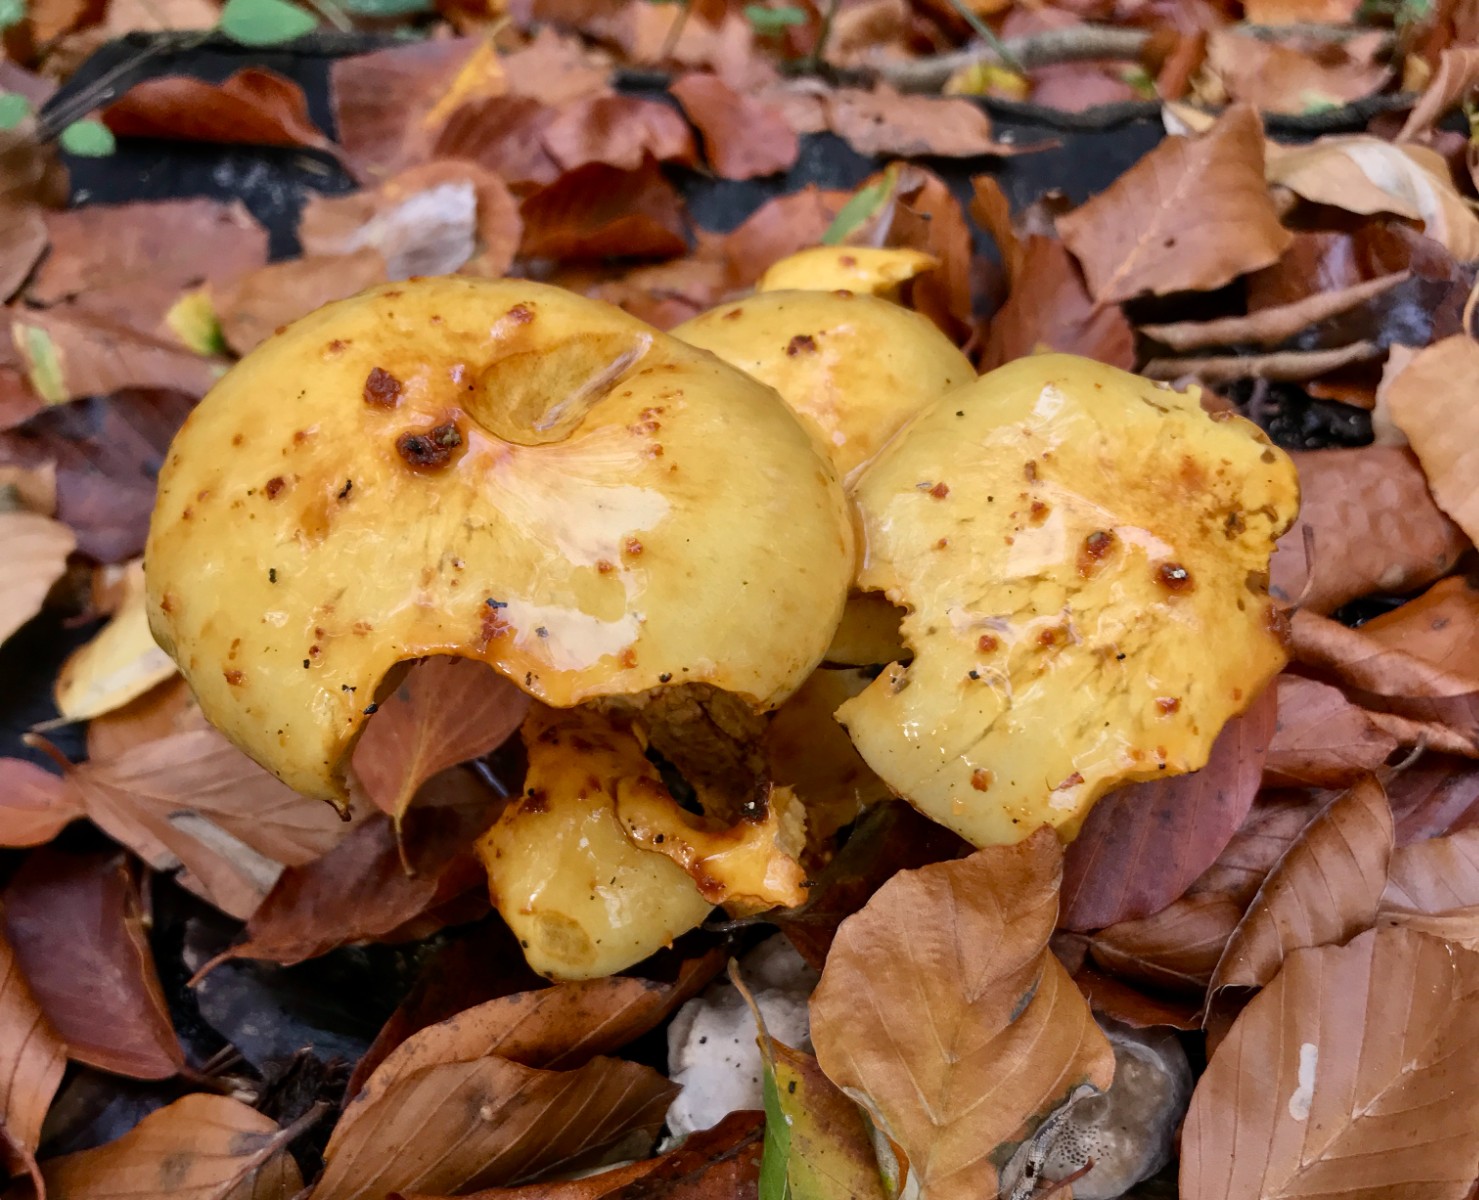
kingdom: Fungi
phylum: Basidiomycota
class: Agaricomycetes
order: Agaricales
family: Strophariaceae
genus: Pholiota
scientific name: Pholiota jahnii
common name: slimet skælhat
